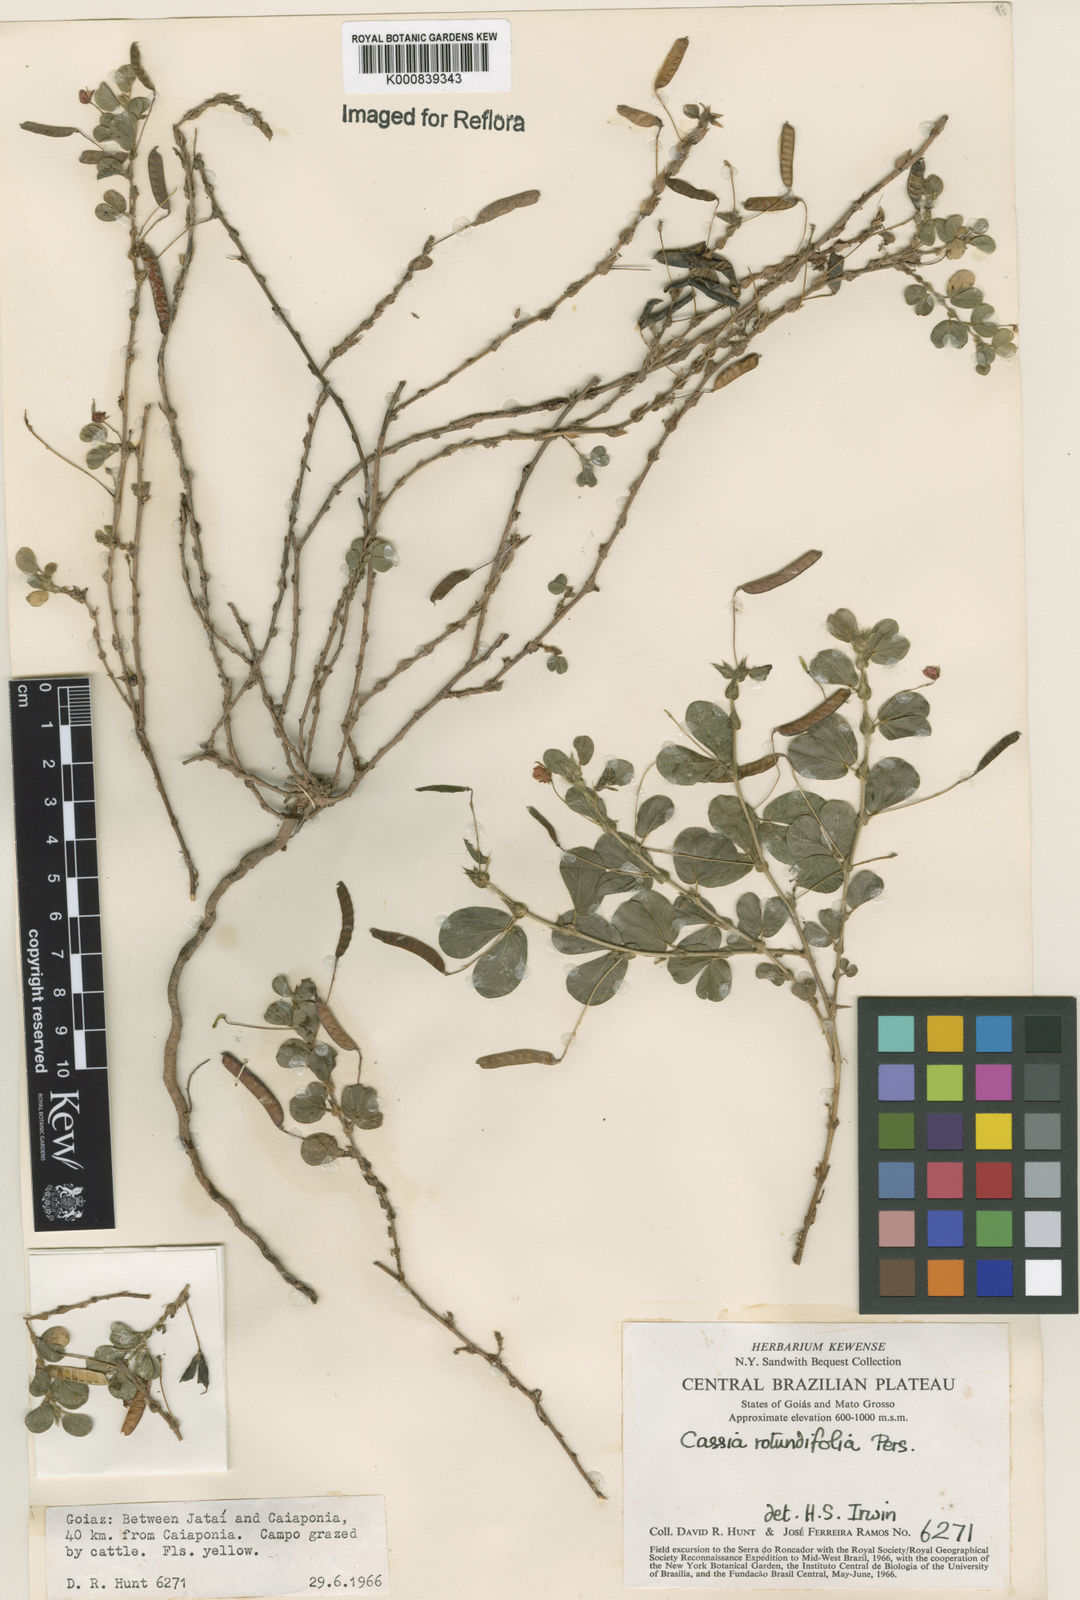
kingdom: Plantae
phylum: Tracheophyta
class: Magnoliopsida
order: Fabales
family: Fabaceae
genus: Chamaecrista
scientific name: Chamaecrista rotundifolia
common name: Round-leaf cassia
